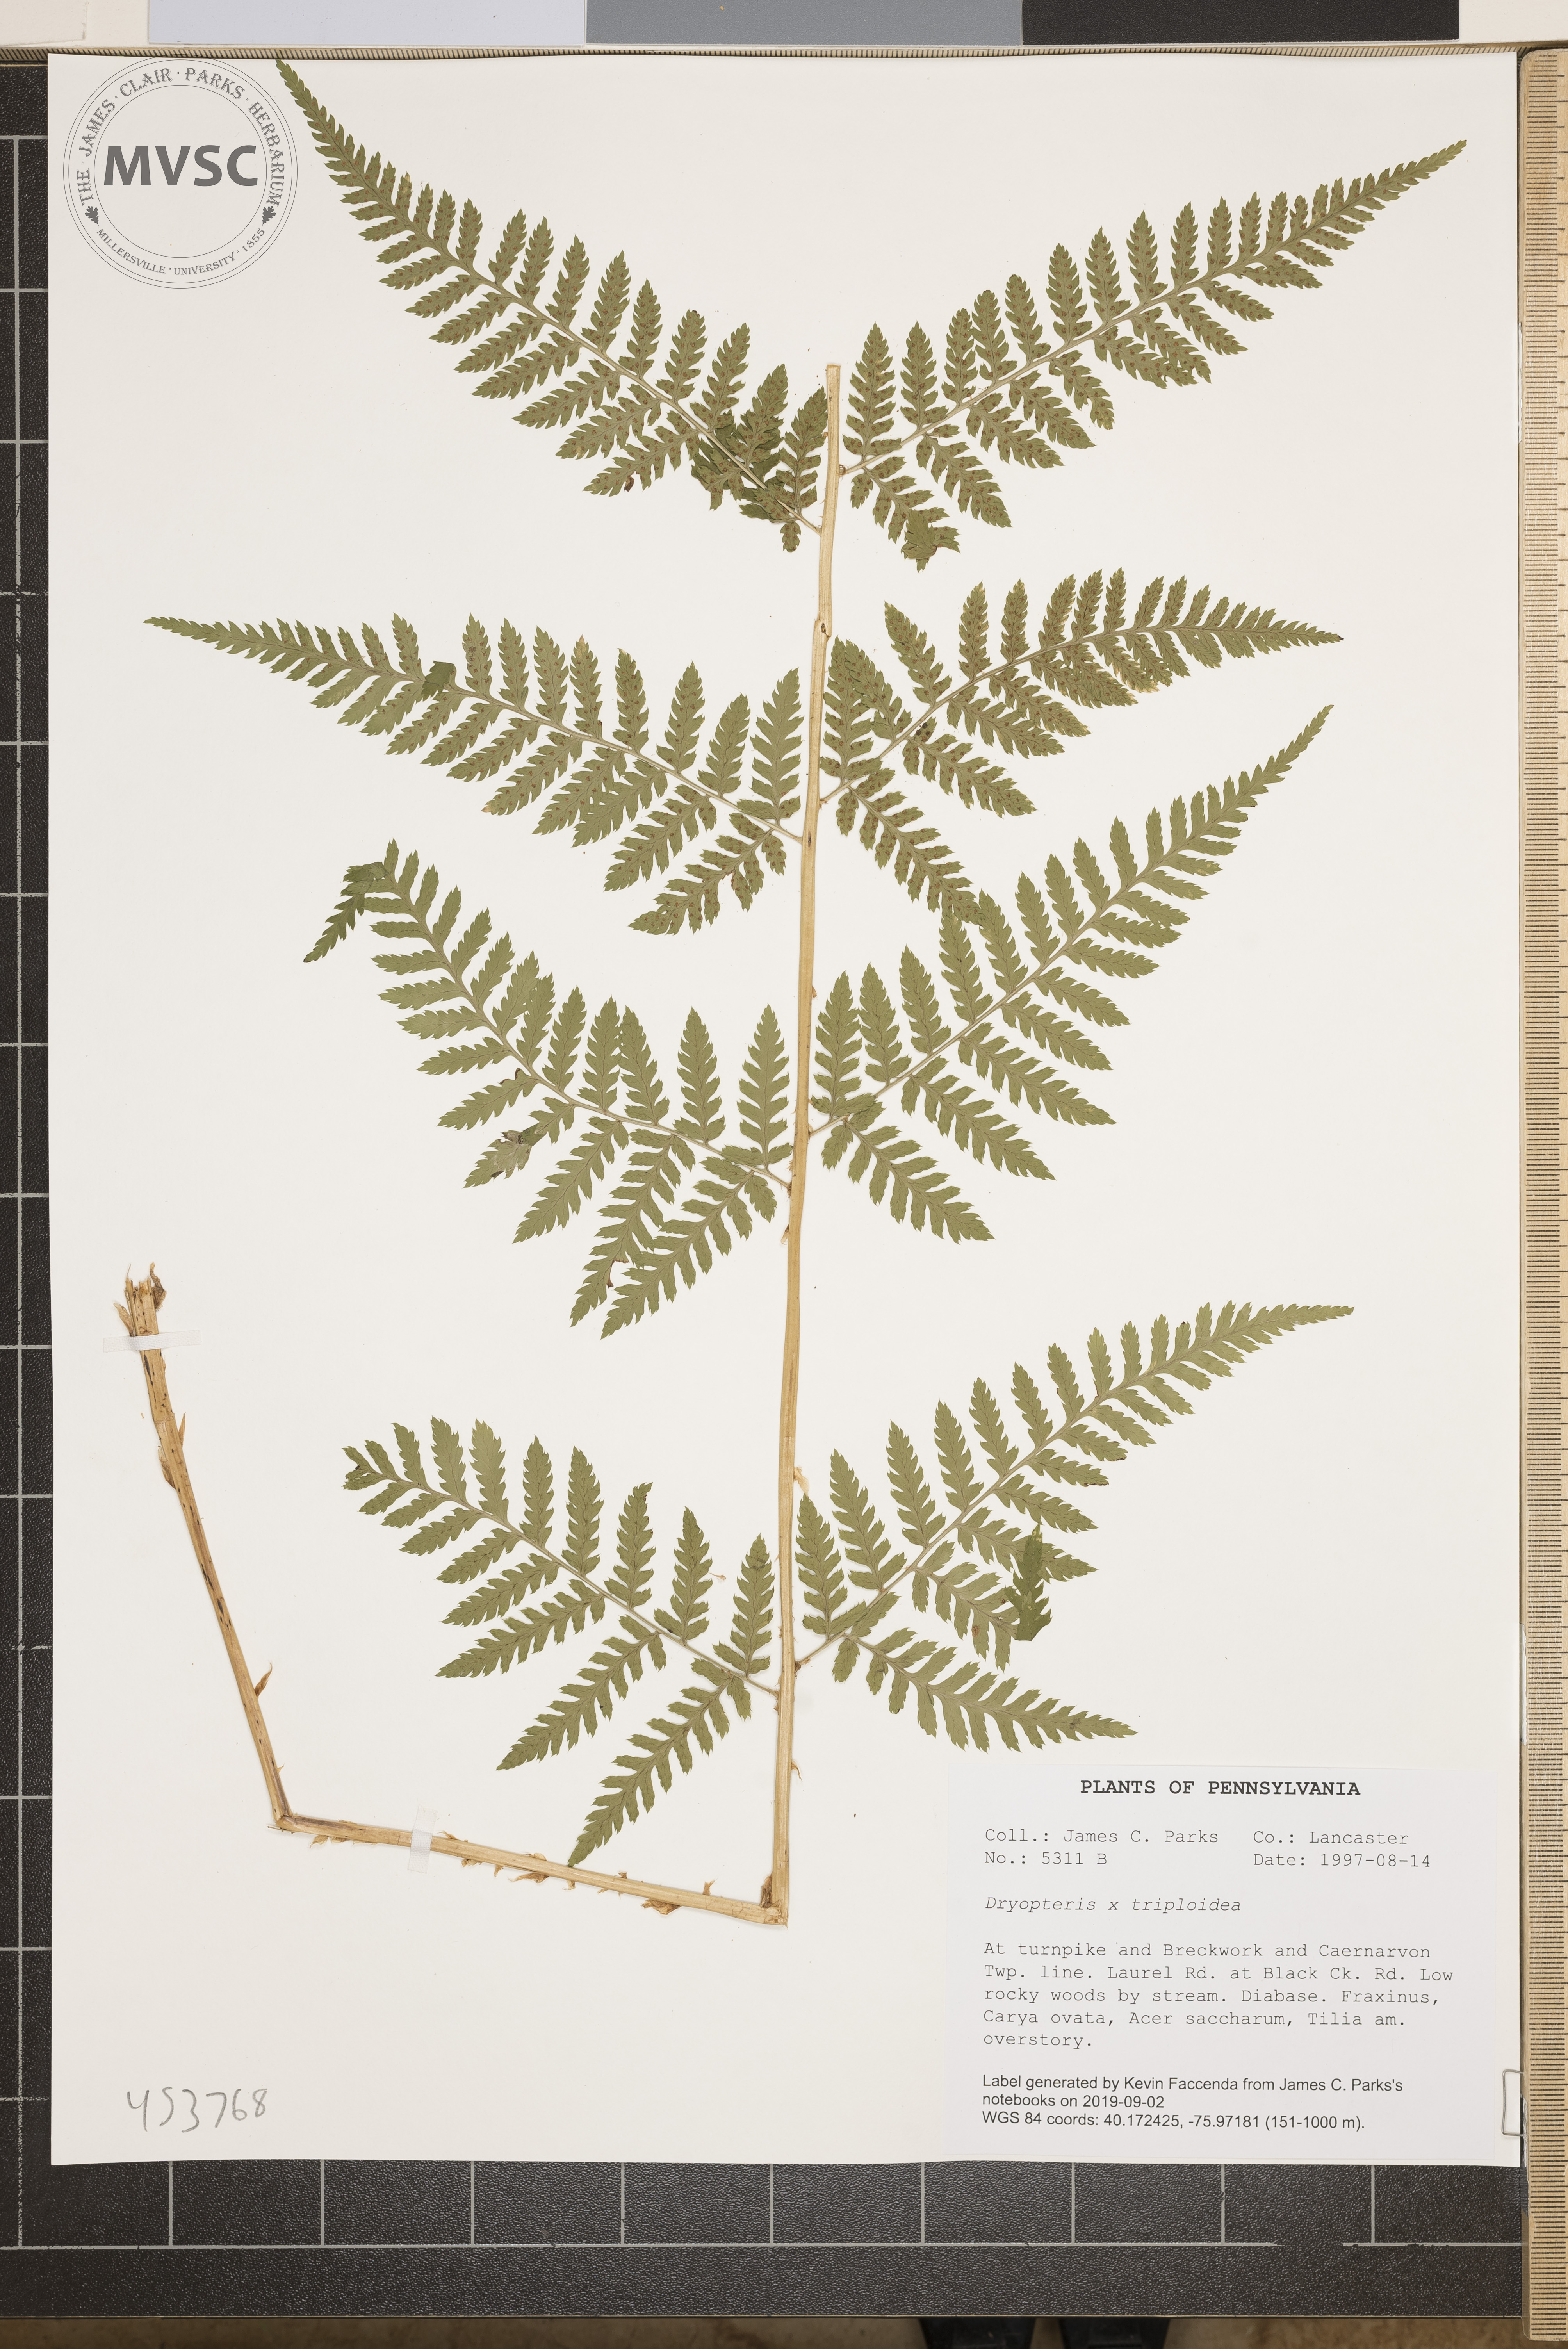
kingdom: Plantae
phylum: Tracheophyta
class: Polypodiopsida
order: Polypodiales
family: Dryopteridaceae
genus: Dryopteris
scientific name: Dryopteris triploidea
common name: Fruitful wood fern
